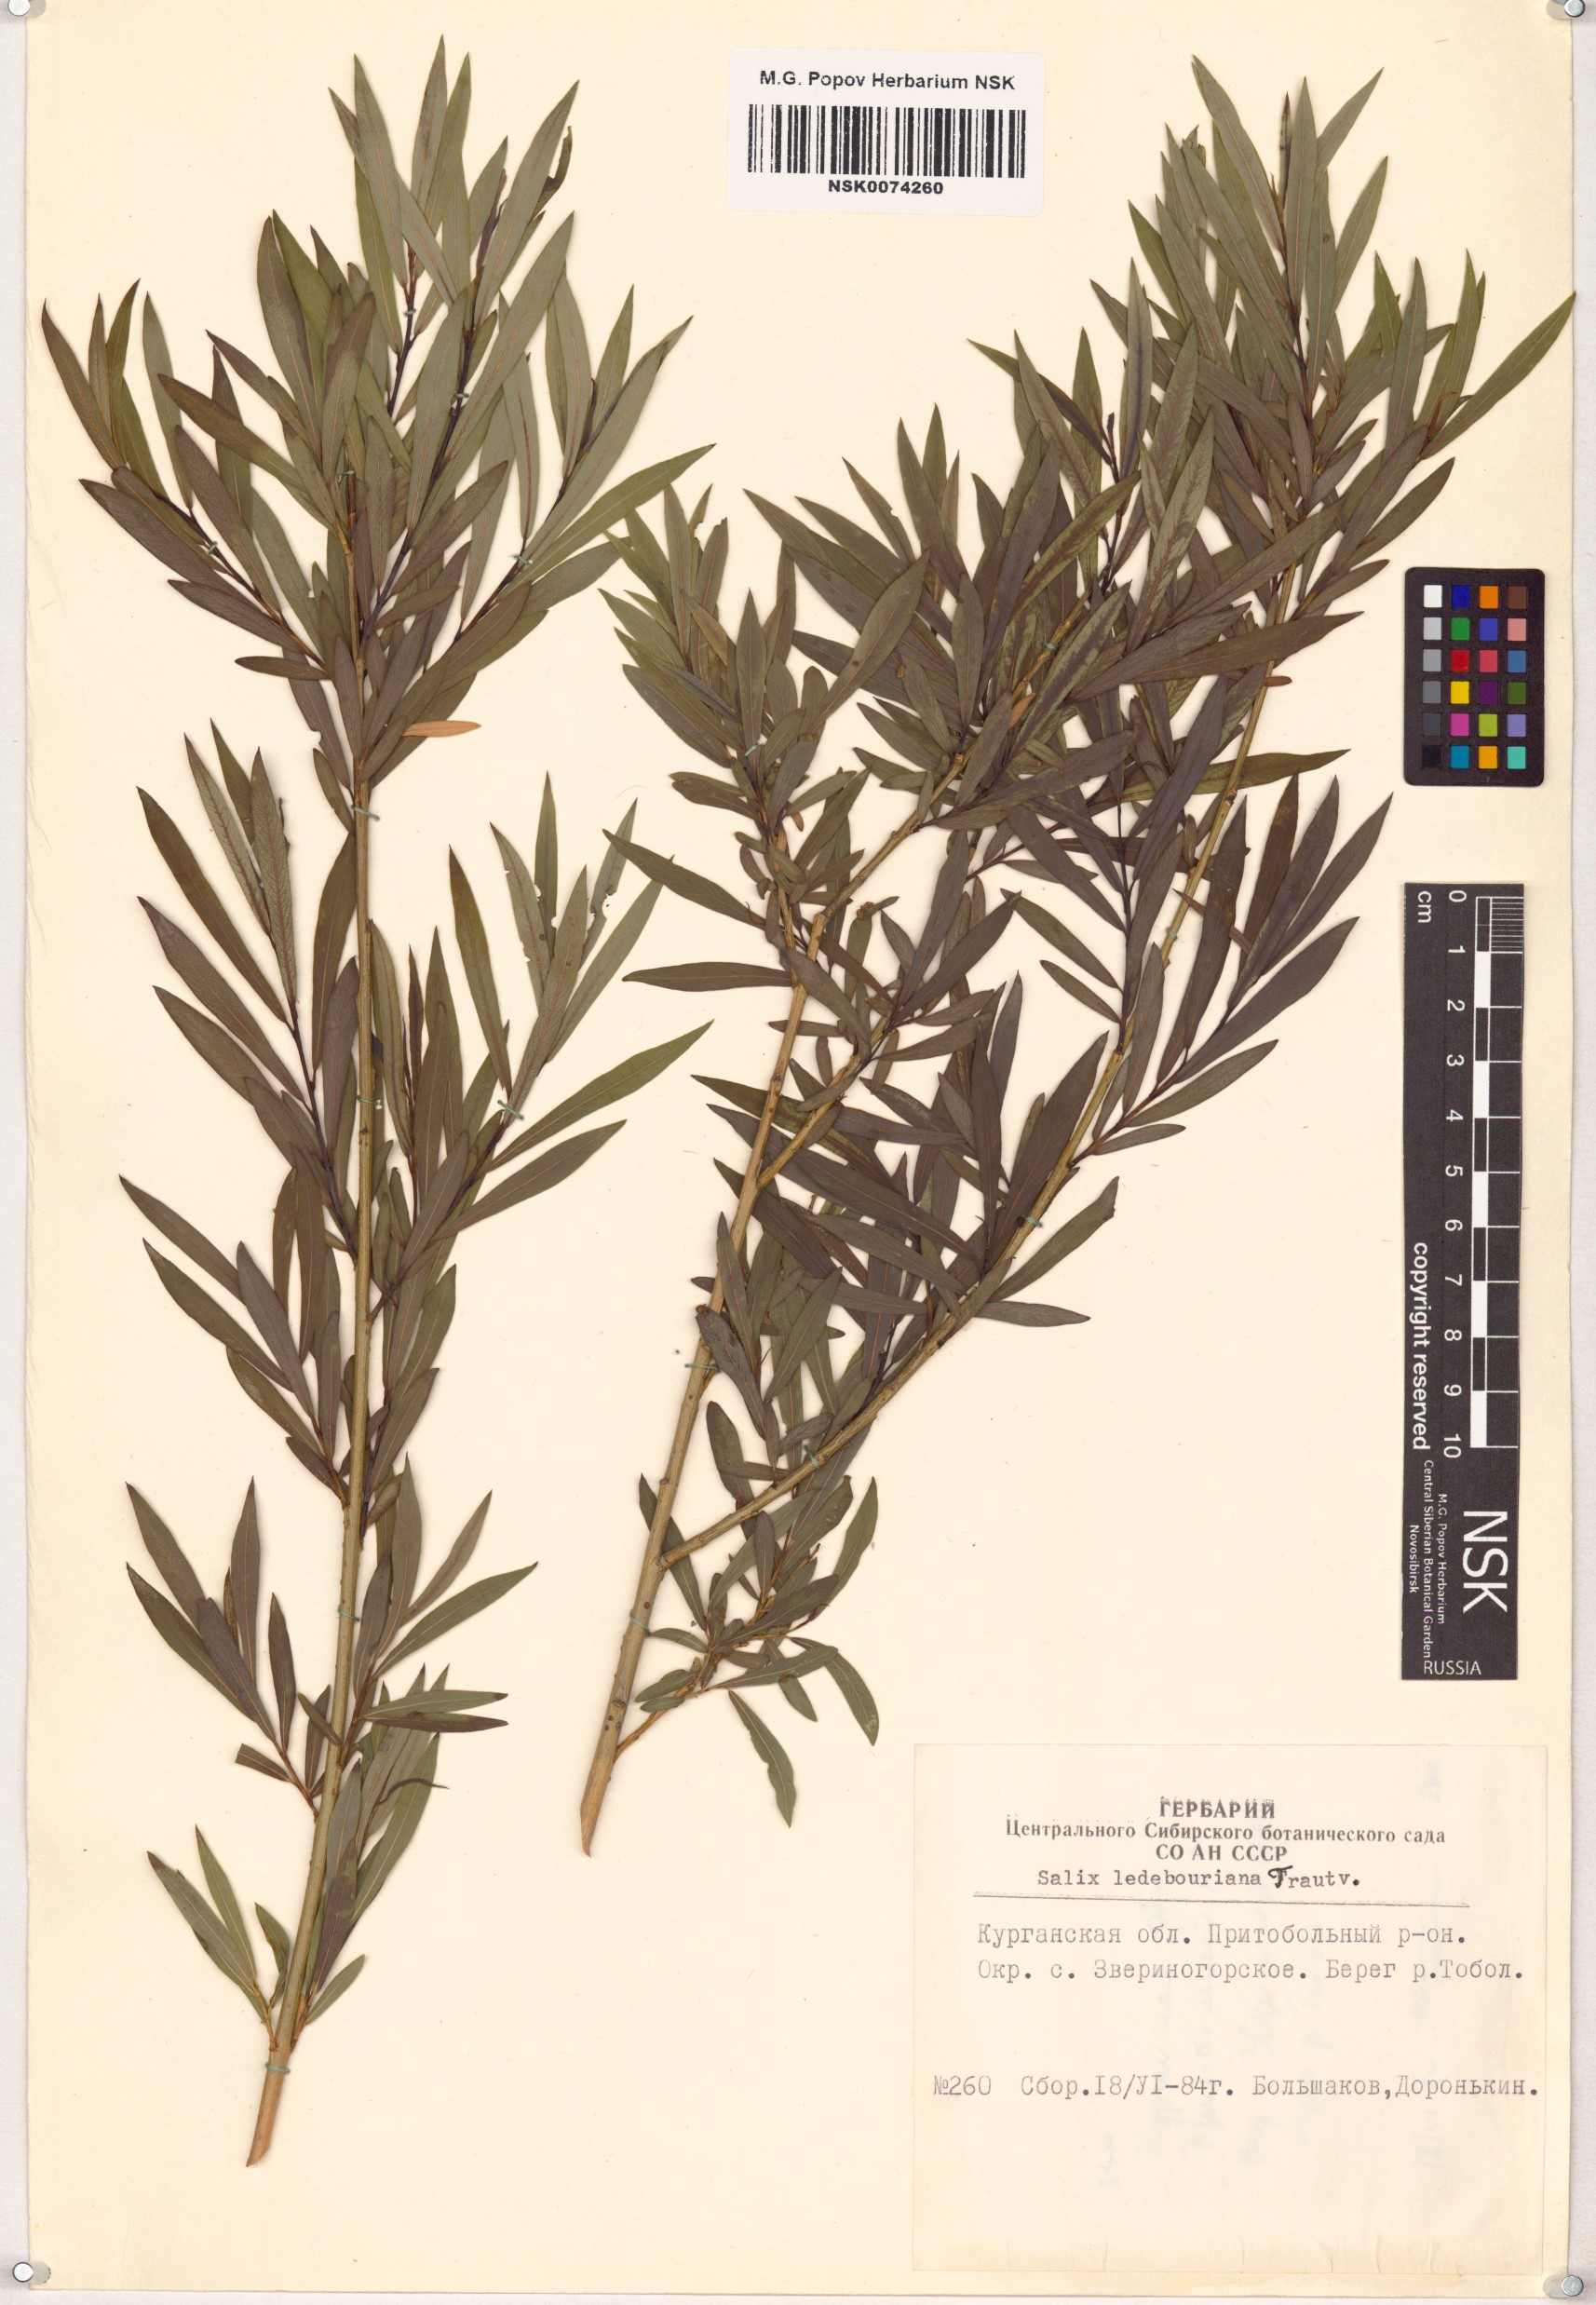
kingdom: Plantae
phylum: Tracheophyta
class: Magnoliopsida
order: Malpighiales
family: Salicaceae
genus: Salix
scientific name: Salix ledebouriana
